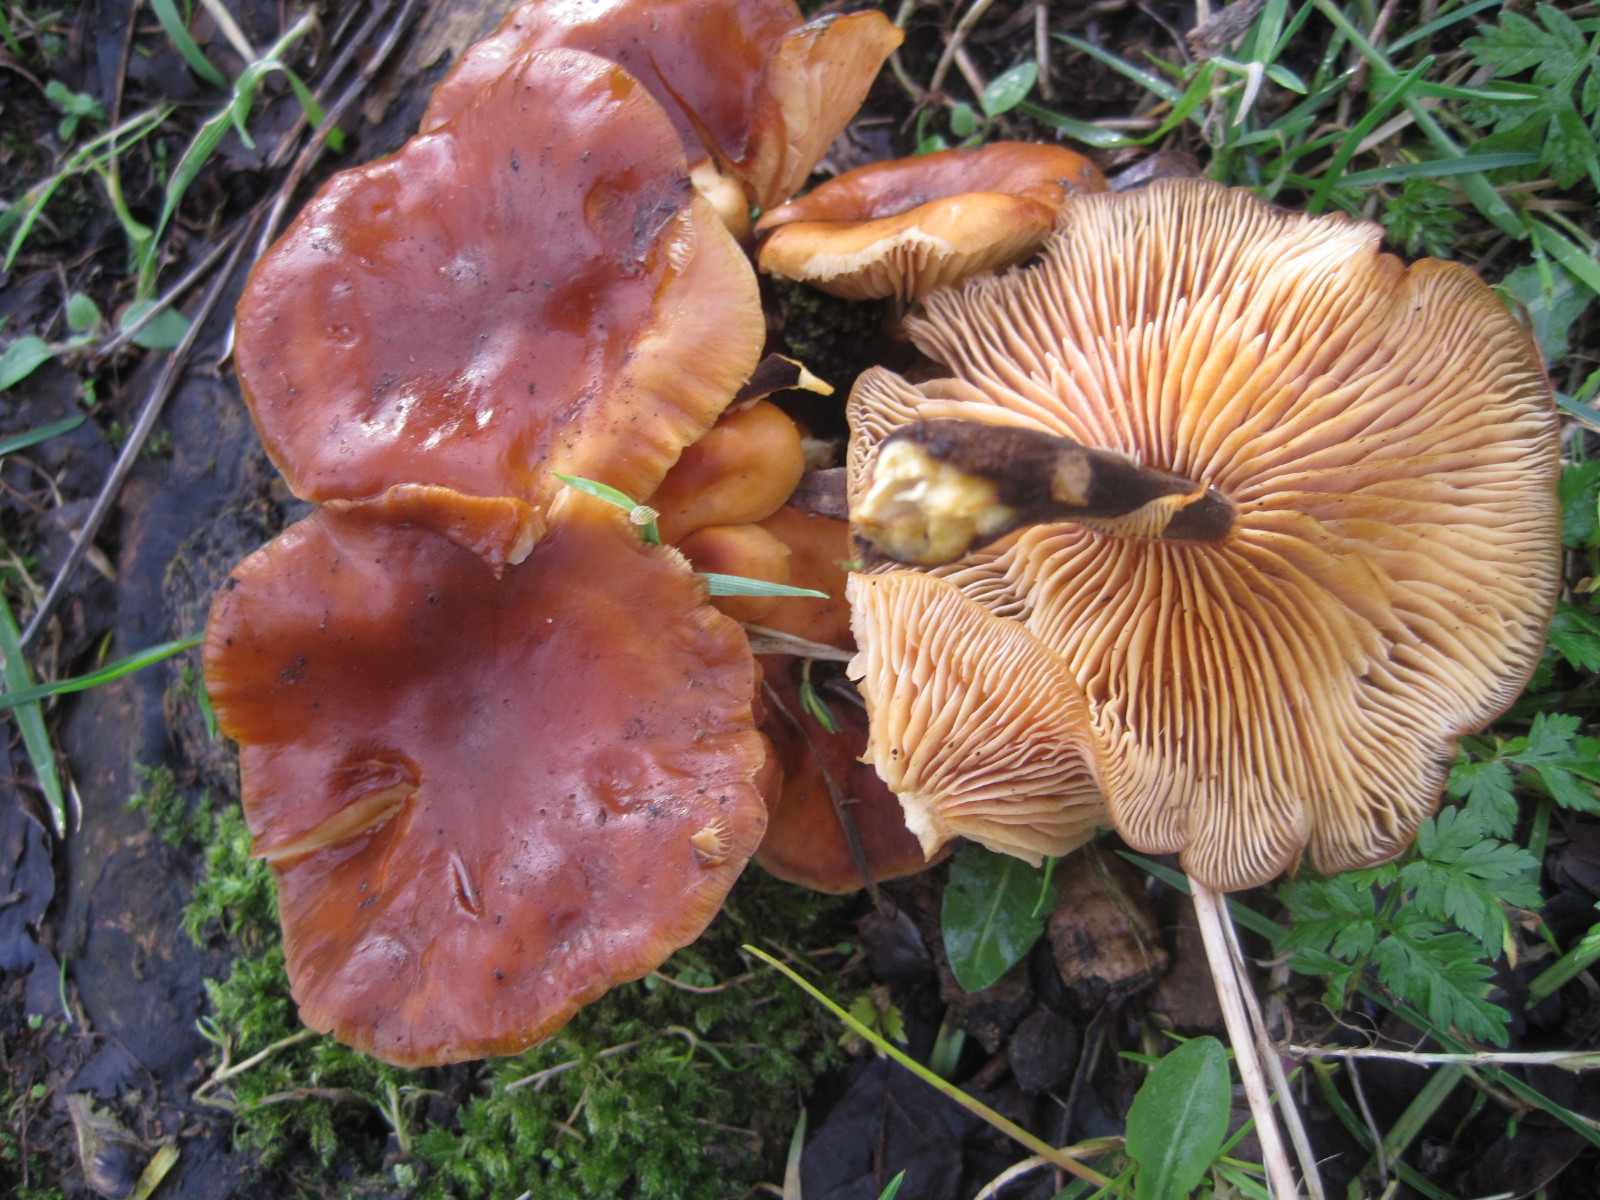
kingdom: Fungi
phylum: Basidiomycota
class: Agaricomycetes
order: Agaricales
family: Physalacriaceae
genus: Flammulina
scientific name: Flammulina velutipes
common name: gul fløjlsfod
